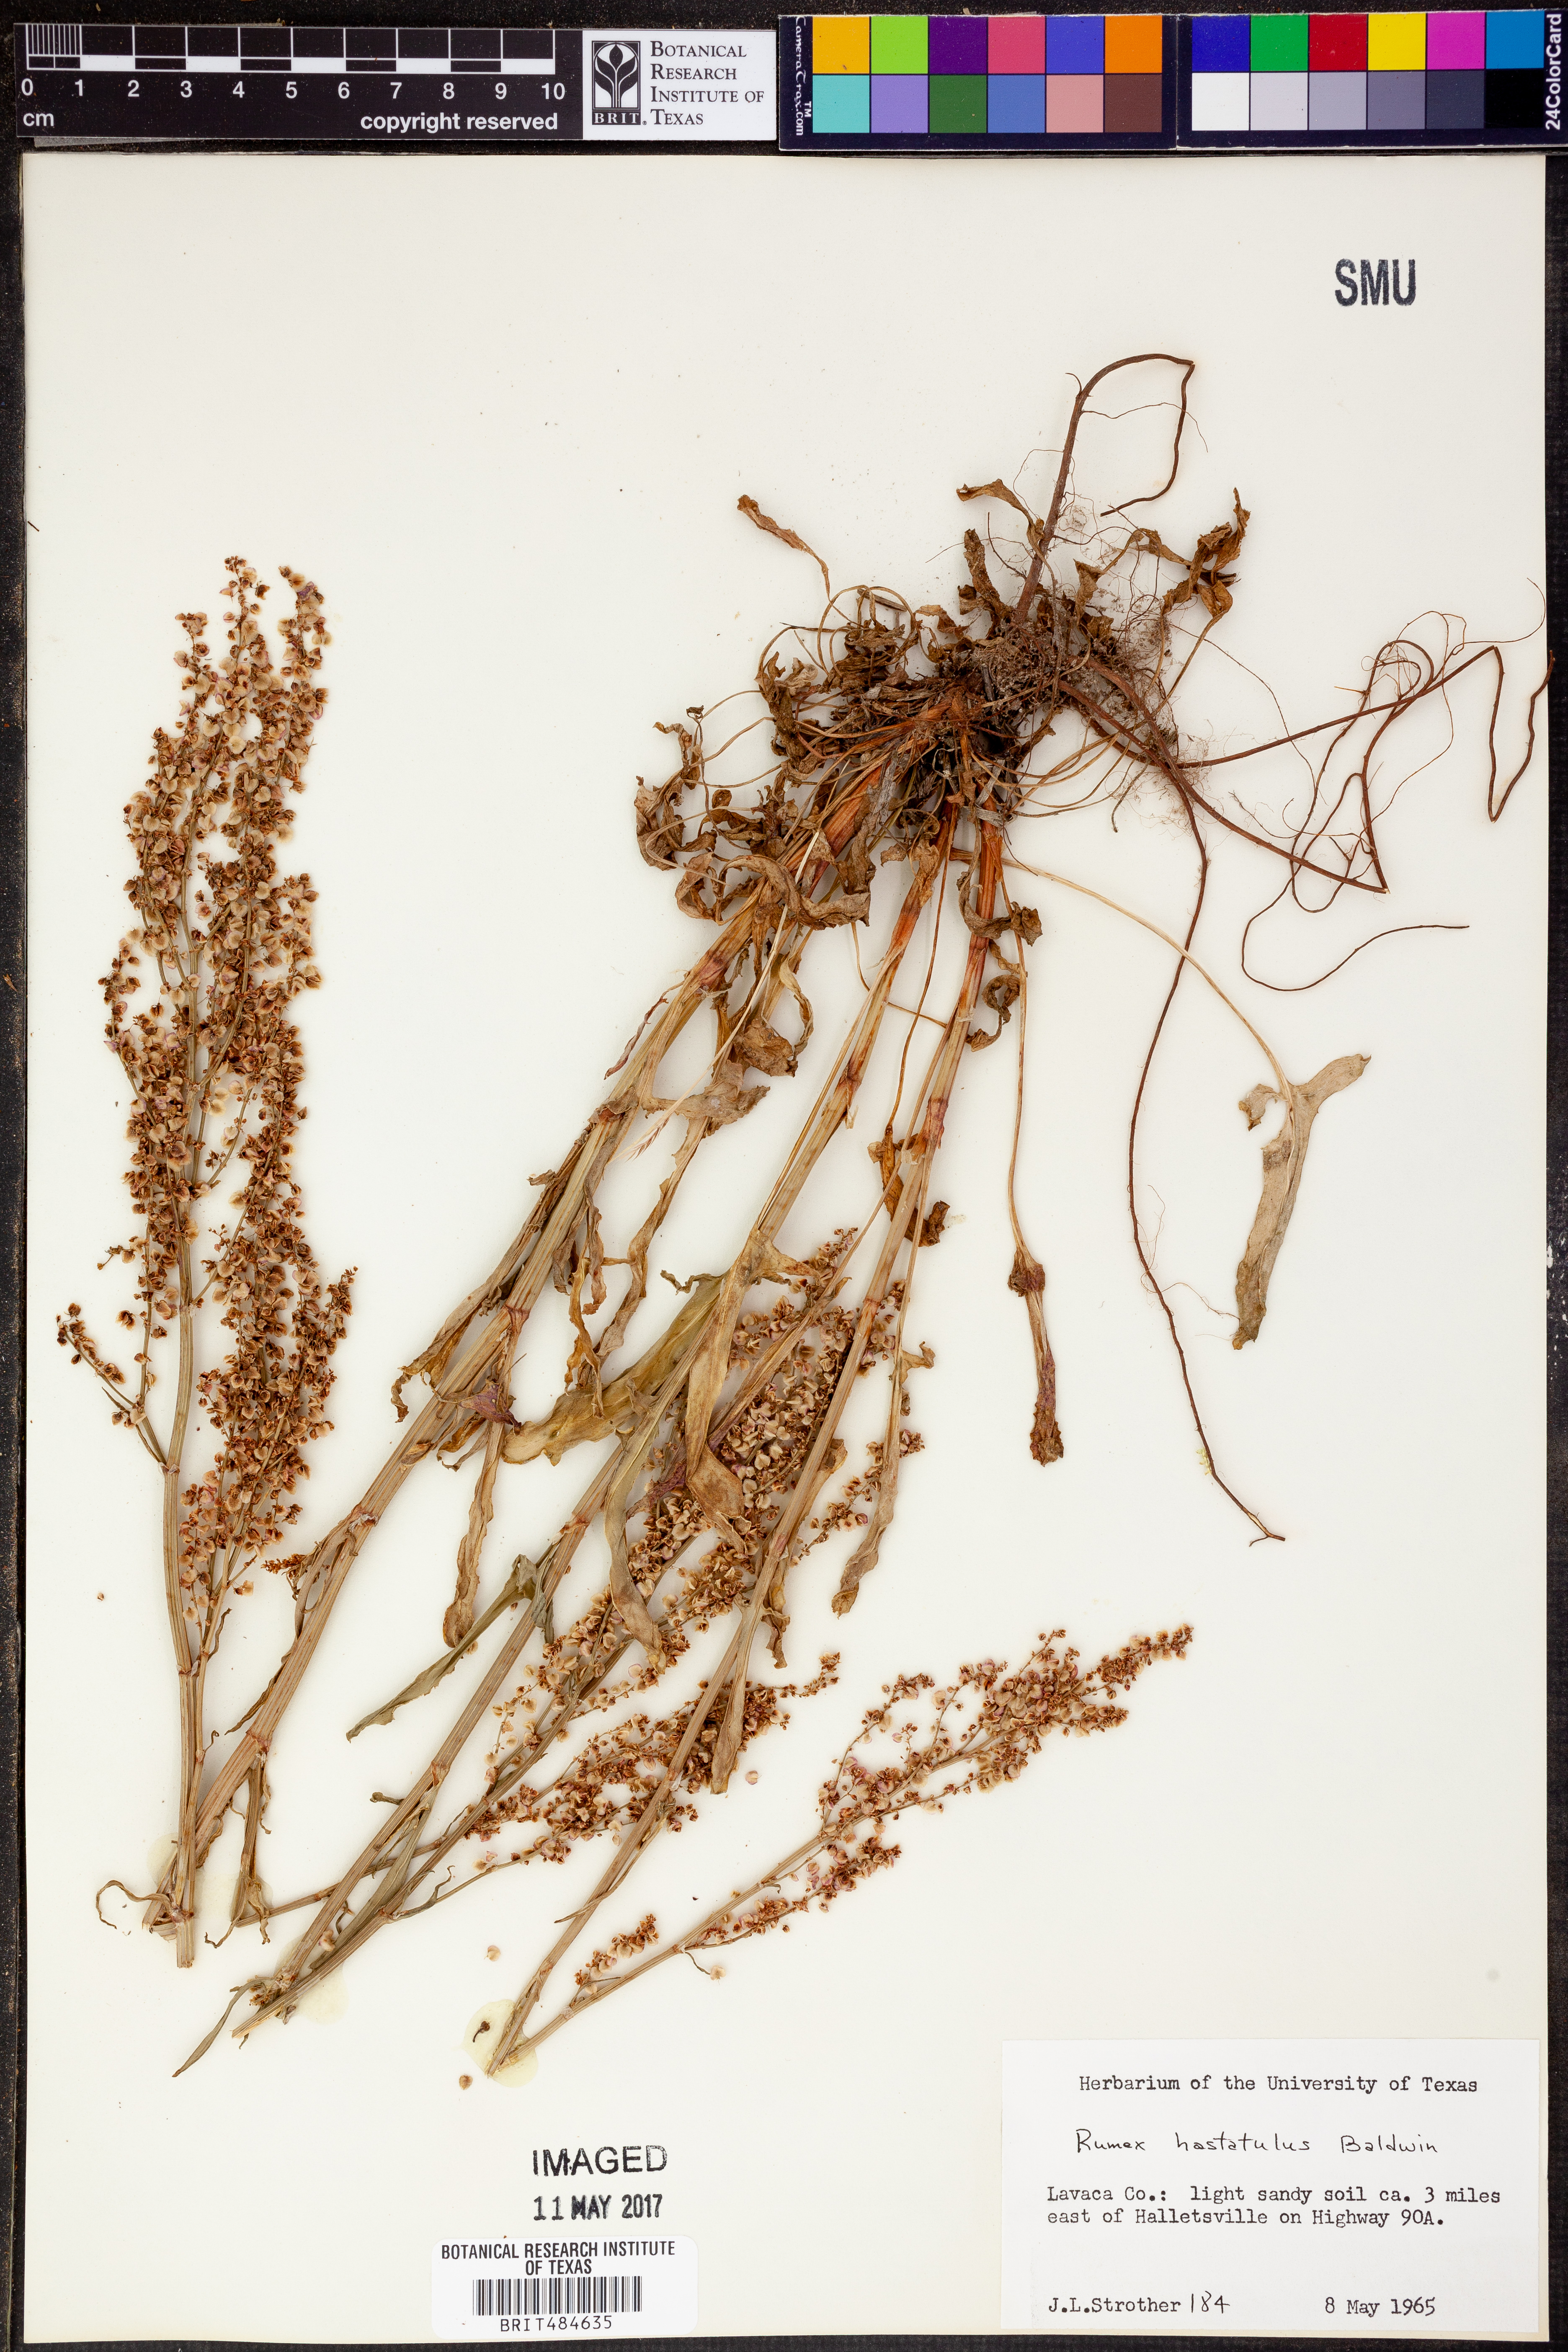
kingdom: Plantae
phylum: Tracheophyta
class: Magnoliopsida
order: Caryophyllales
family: Polygonaceae
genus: Rumex
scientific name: Rumex hastatulus
